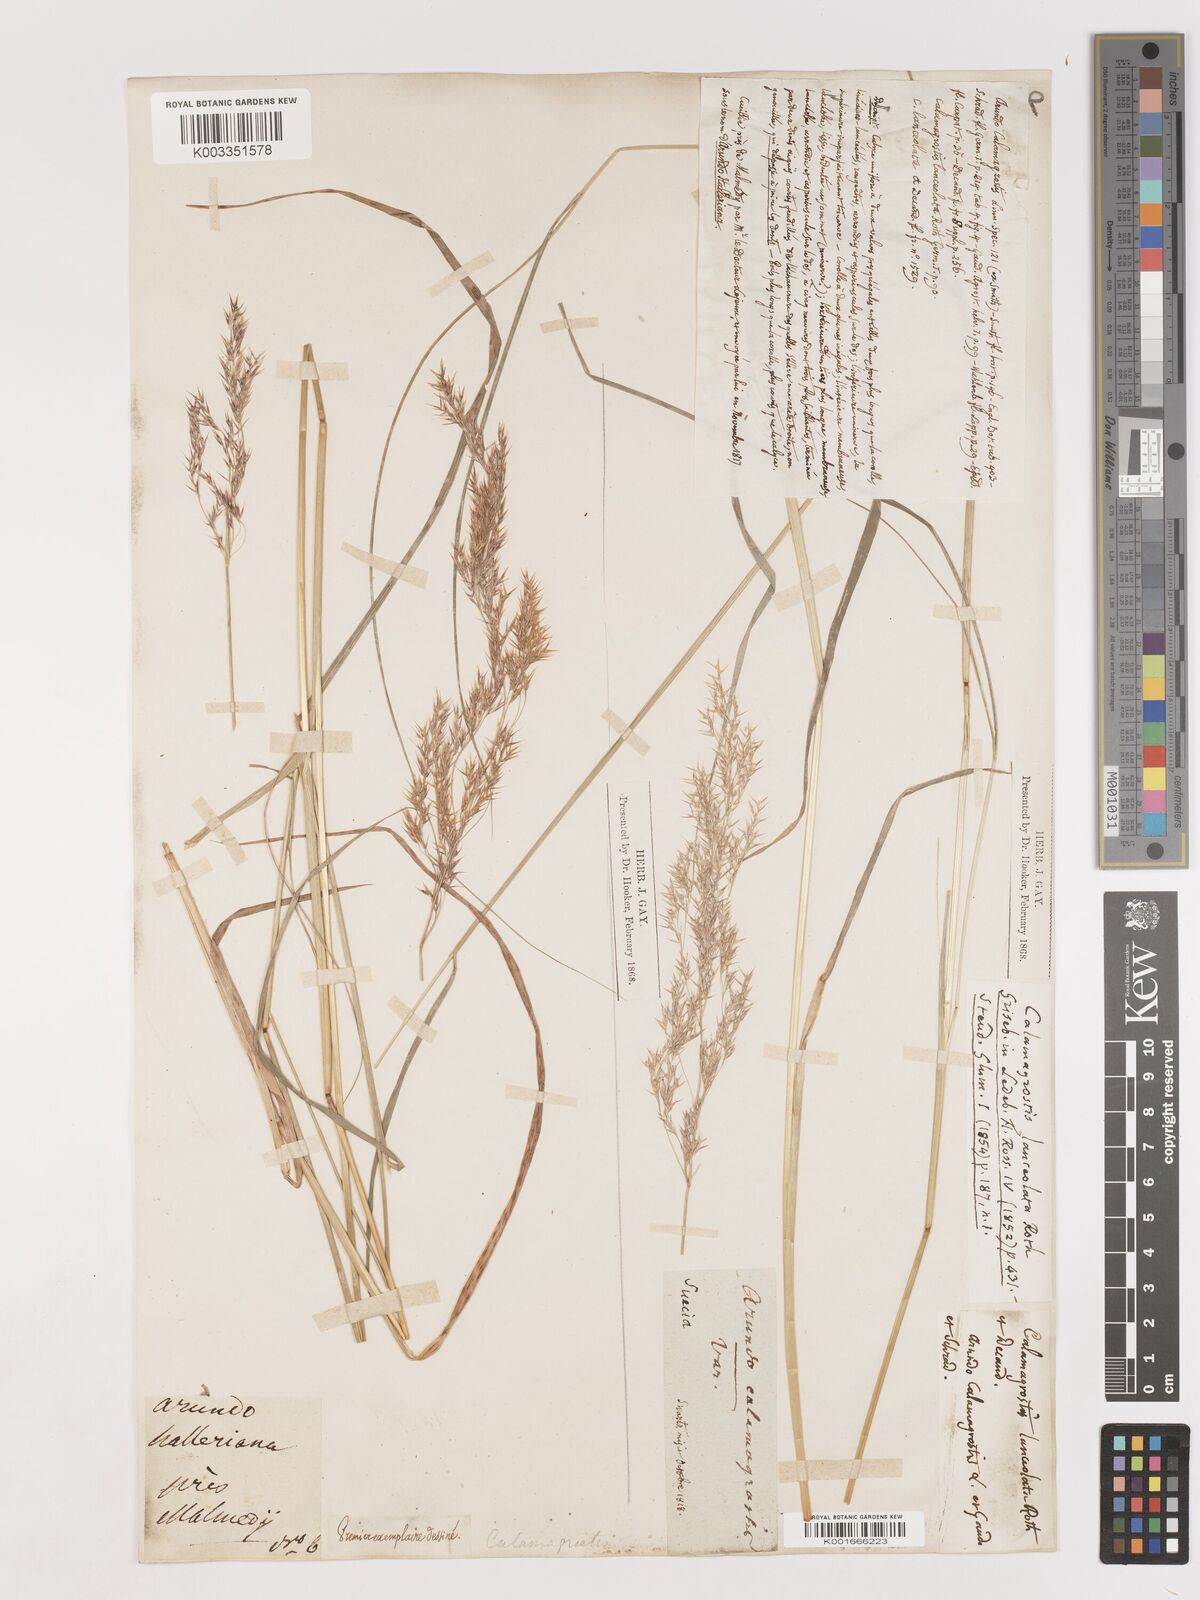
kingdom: Plantae
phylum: Tracheophyta
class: Liliopsida
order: Poales
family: Poaceae
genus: Calamagrostis
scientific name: Calamagrostis canescens
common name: Purple small-reed
